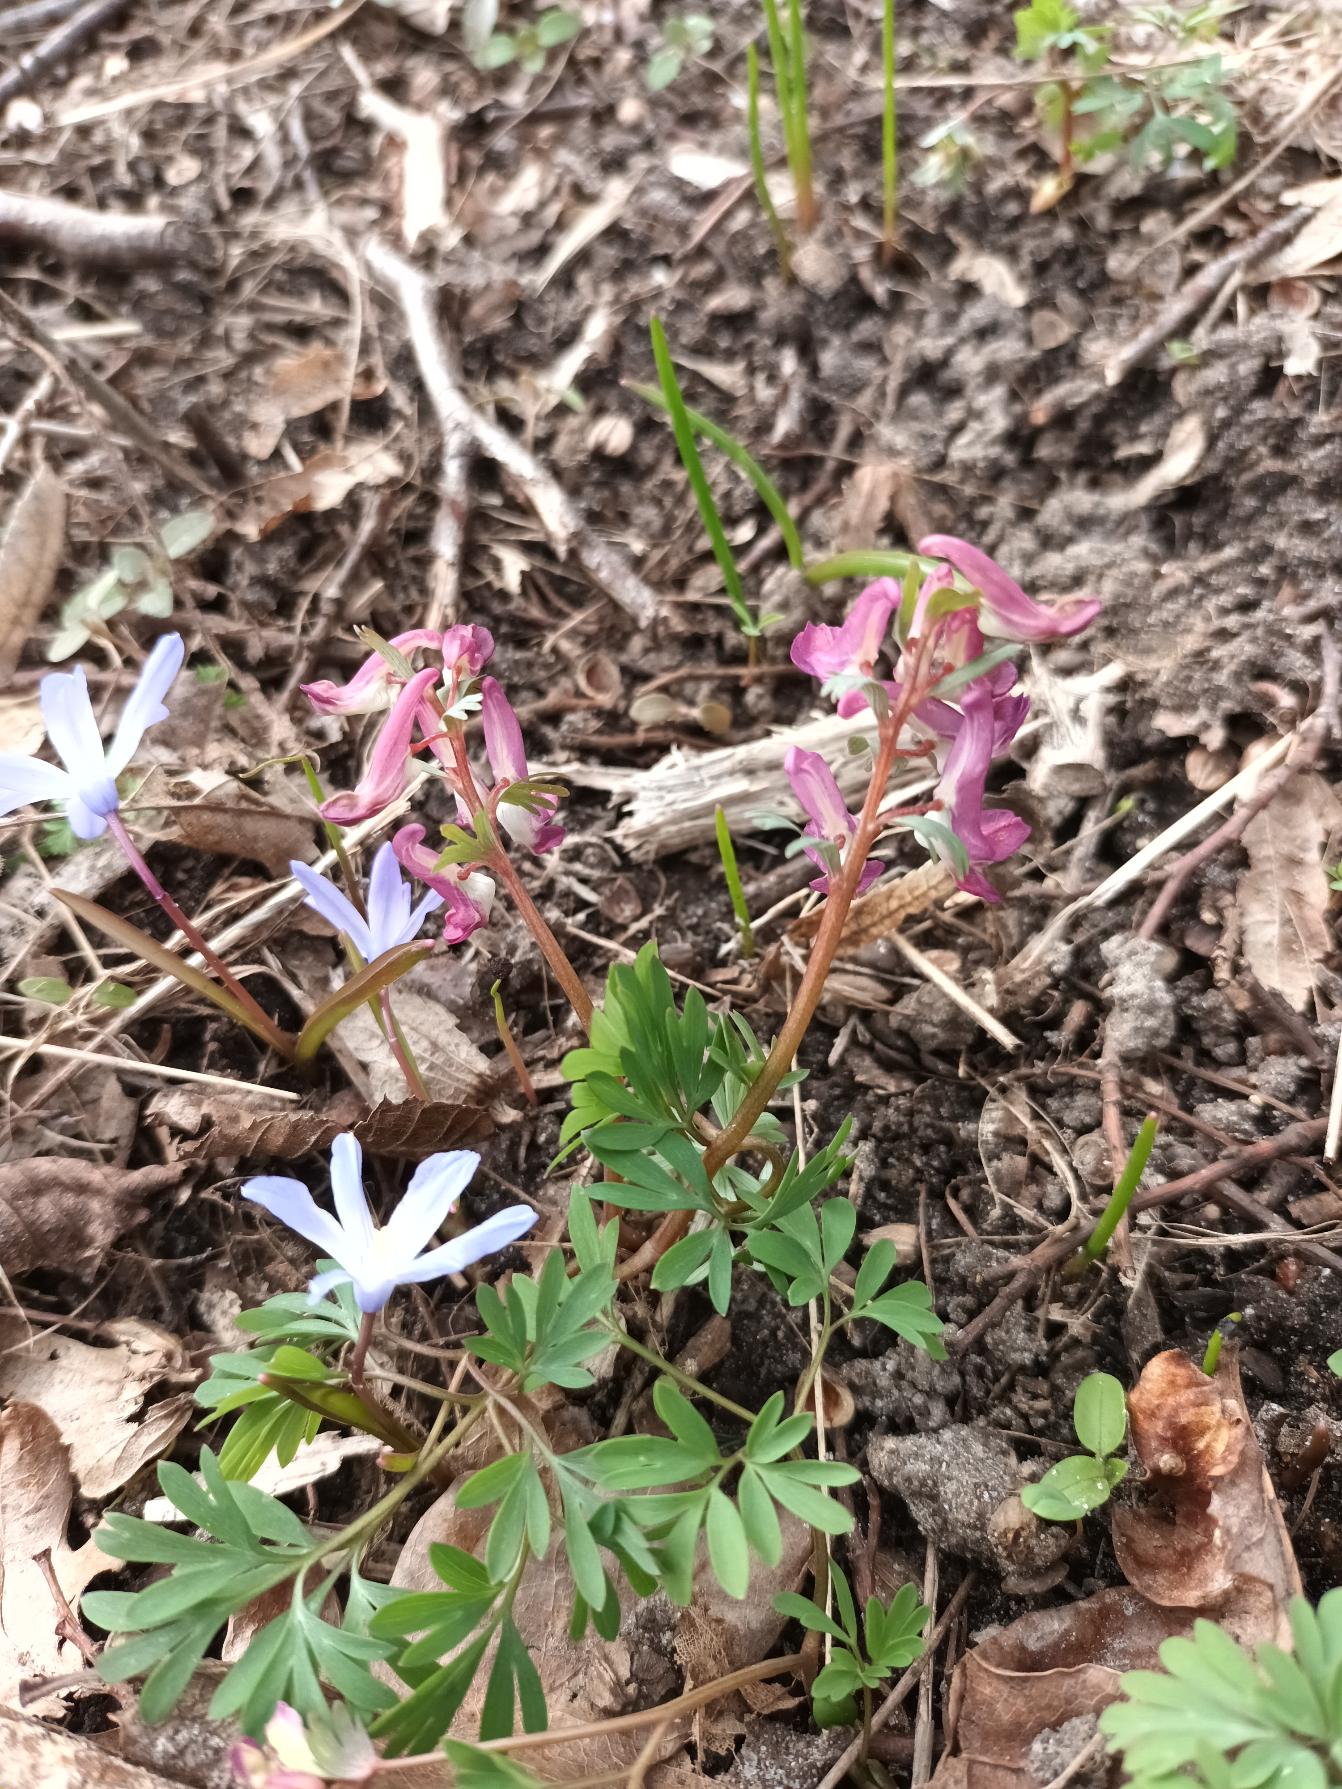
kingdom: Plantae
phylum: Tracheophyta
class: Magnoliopsida
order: Ranunculales
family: Papaveraceae
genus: Corydalis
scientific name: Corydalis solida
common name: Langstilket lærkespore
